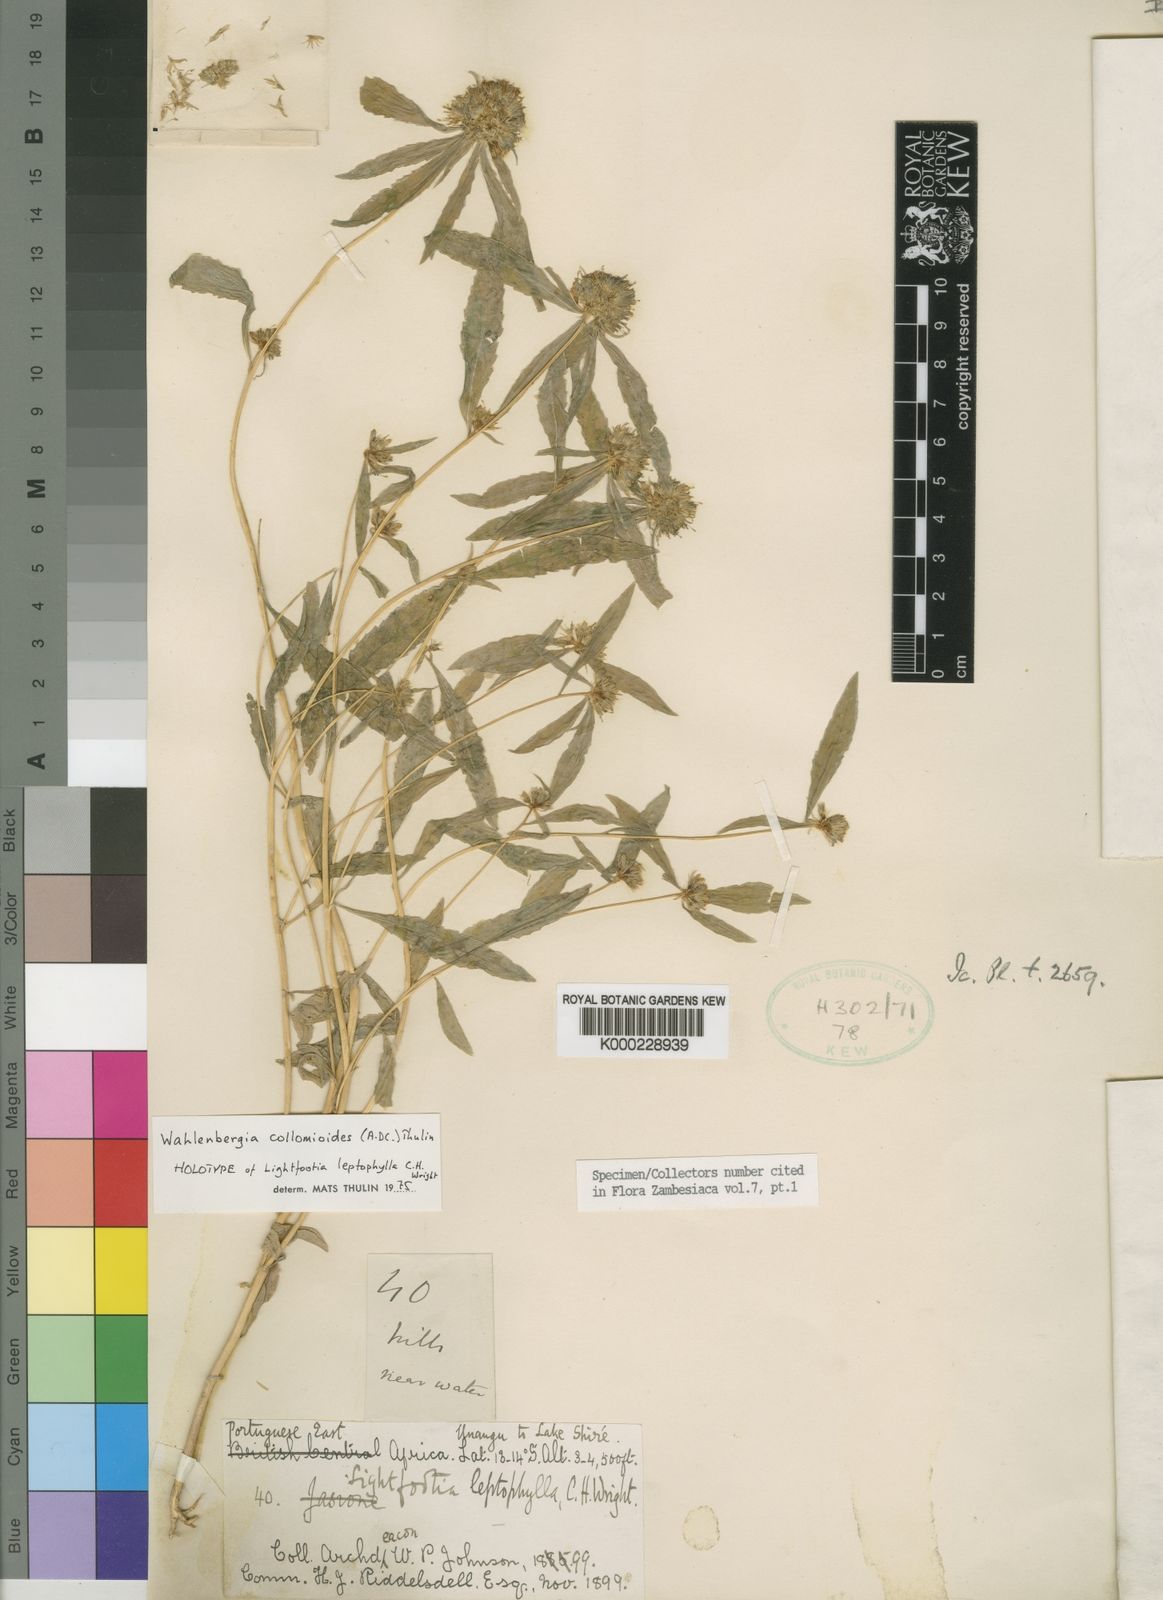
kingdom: Plantae
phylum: Tracheophyta
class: Magnoliopsida
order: Asterales
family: Campanulaceae
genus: Wahlenbergia
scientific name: Wahlenbergia collomioides
